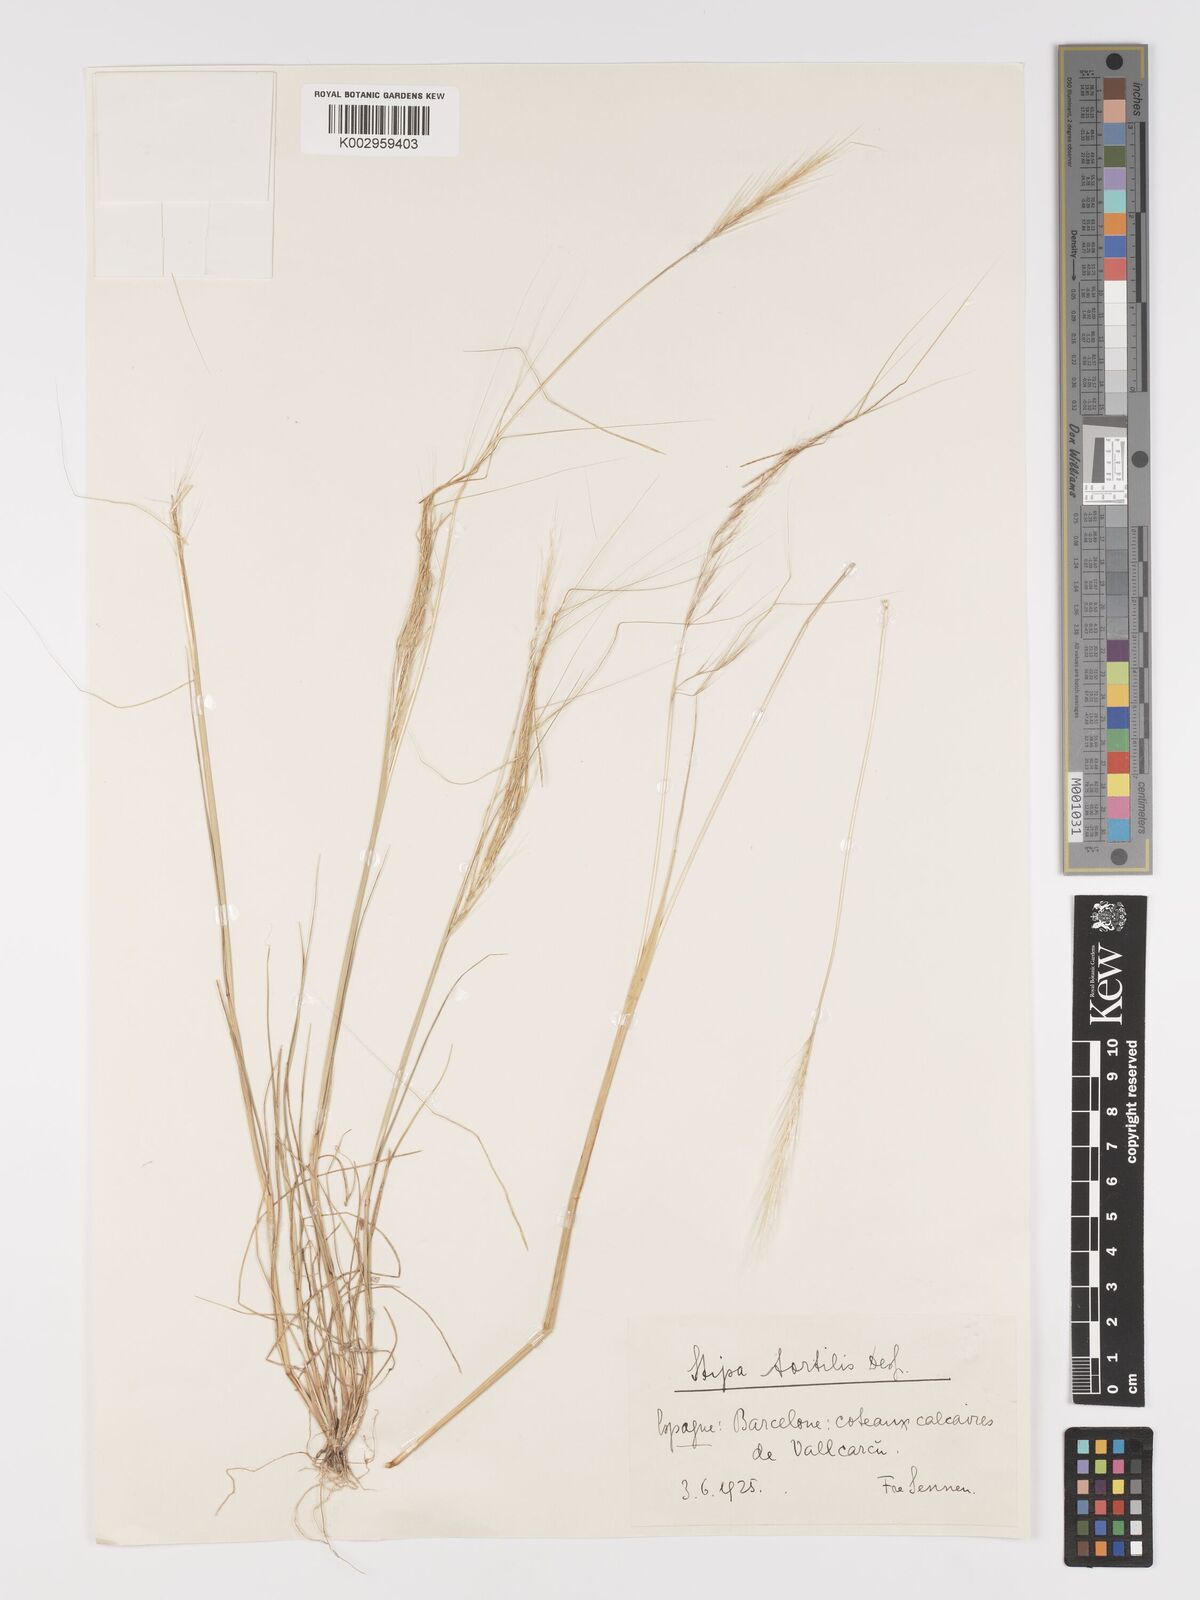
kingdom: Plantae
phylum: Tracheophyta
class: Liliopsida
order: Poales
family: Poaceae
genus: Stipellula
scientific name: Stipellula capensis
